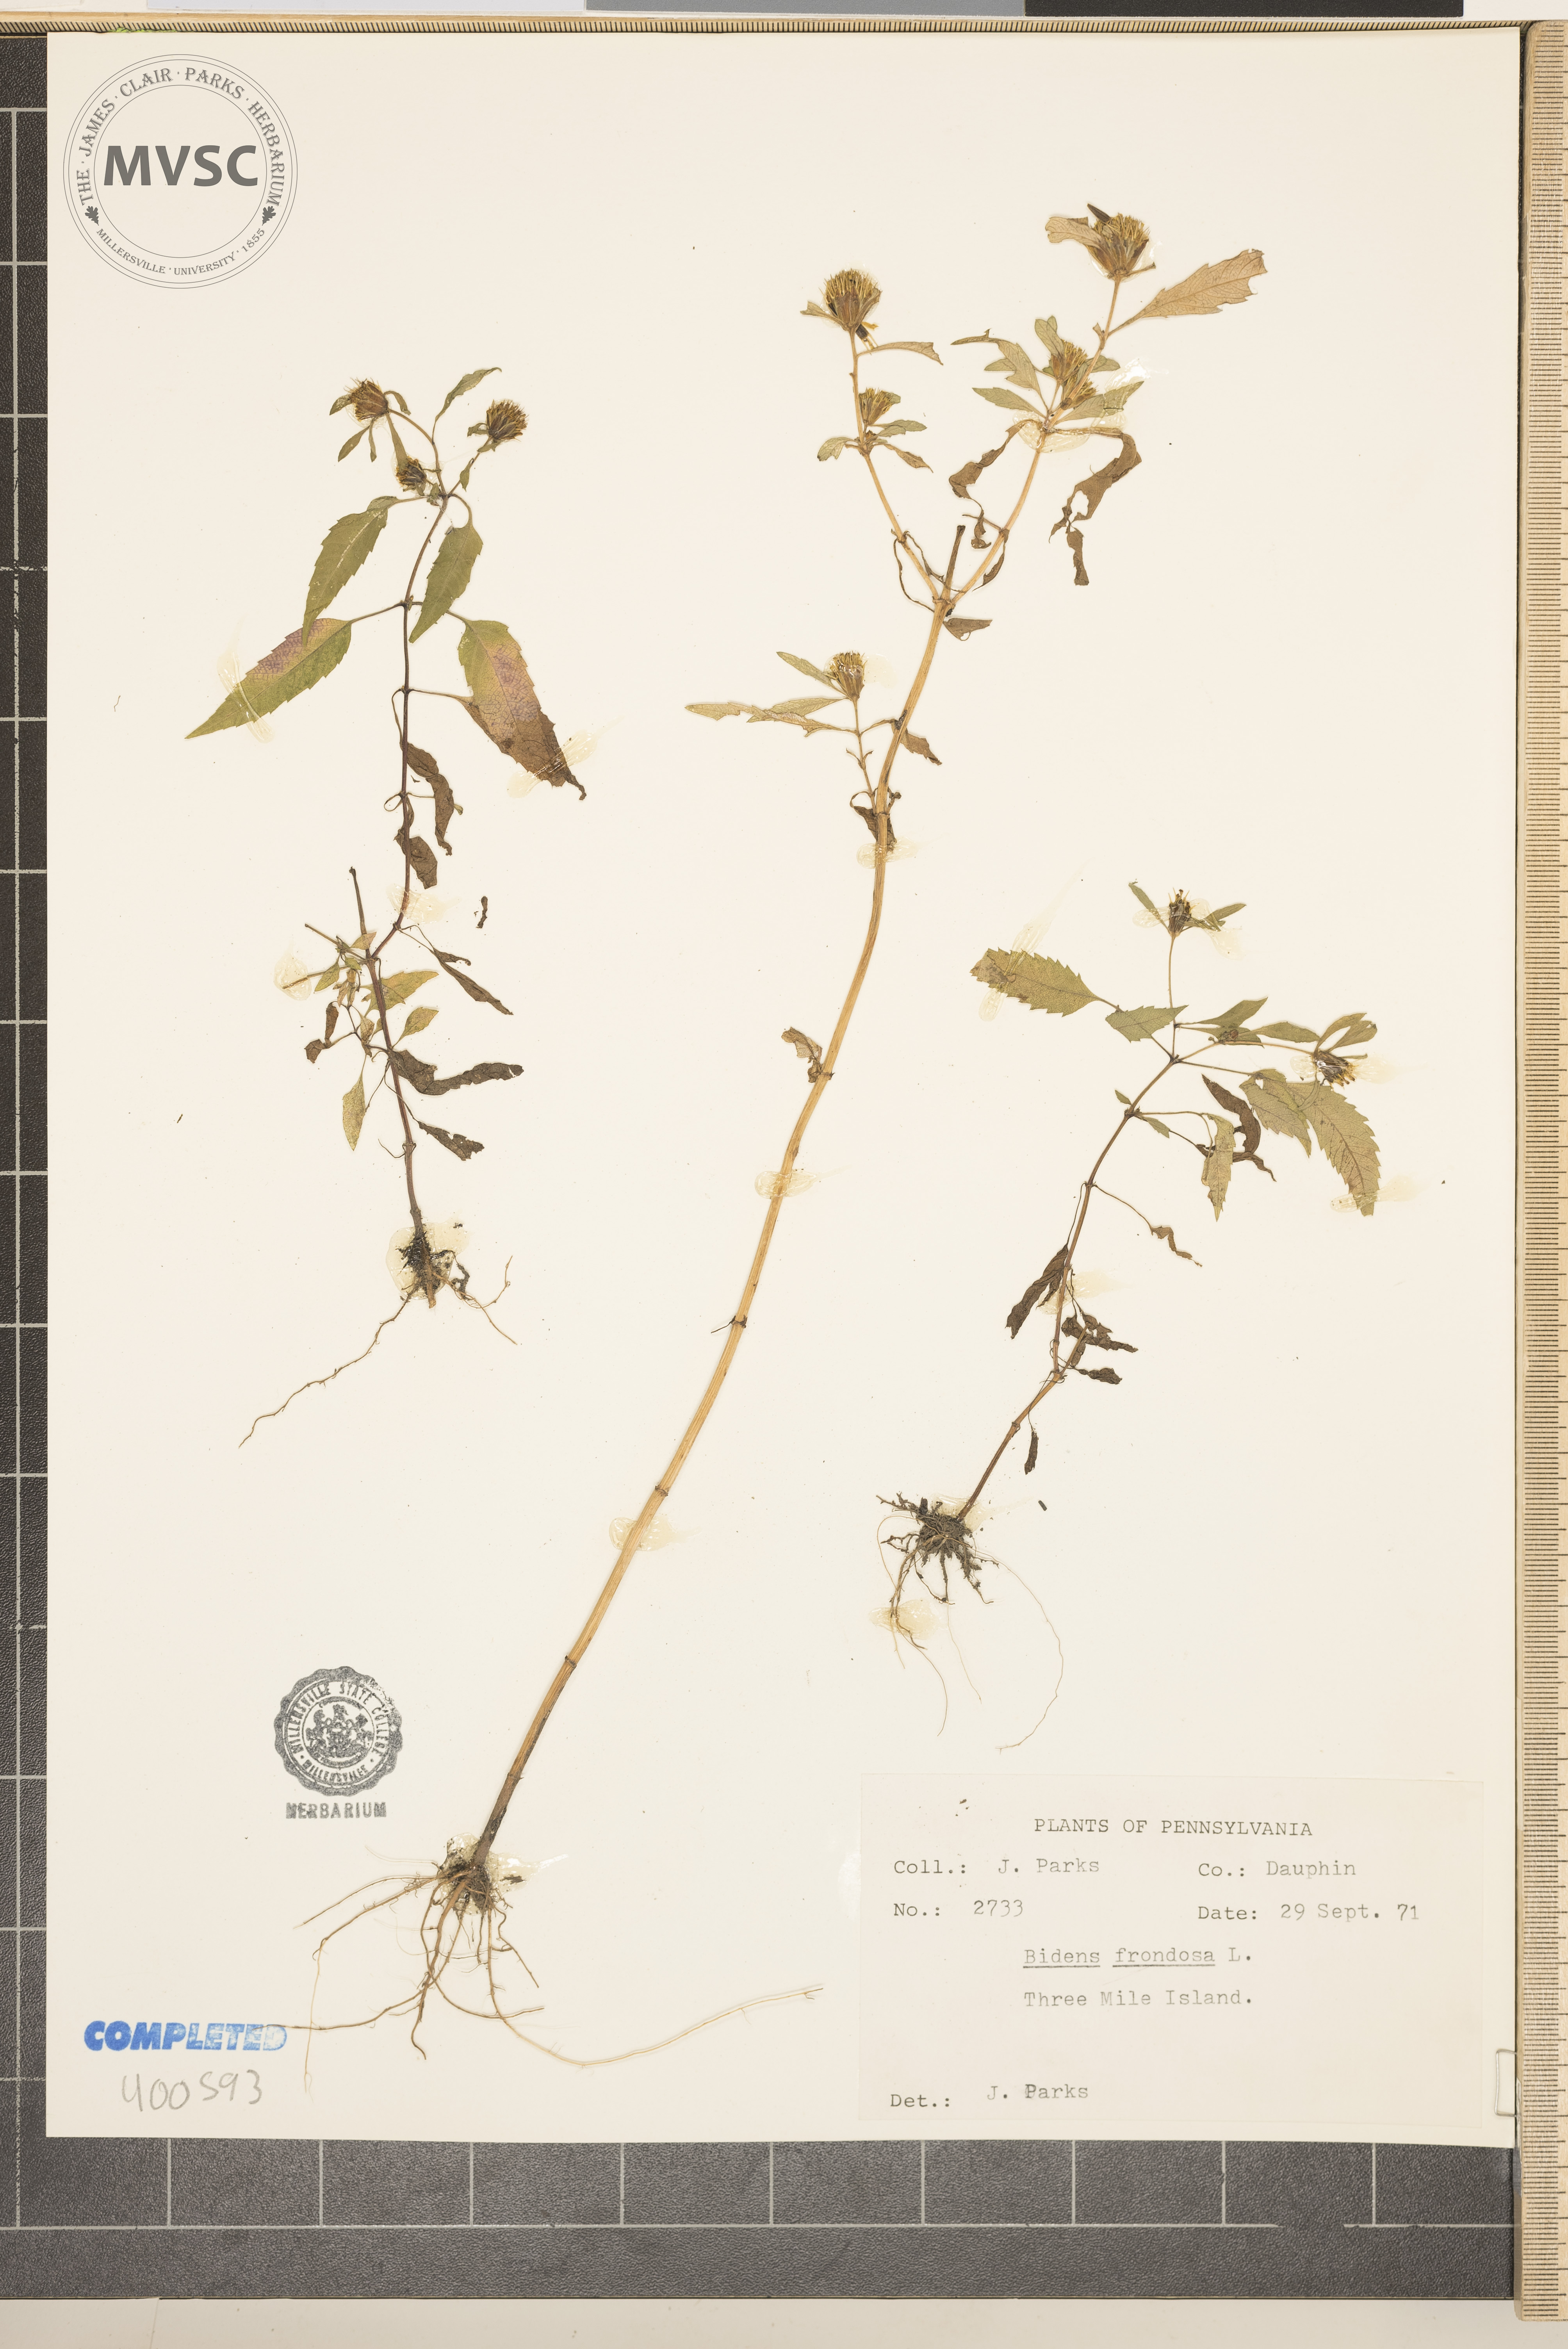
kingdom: Plantae
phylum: Tracheophyta
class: Magnoliopsida
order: Asterales
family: Asteraceae
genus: Bidens
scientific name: Bidens frondosa
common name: Beggarticks
